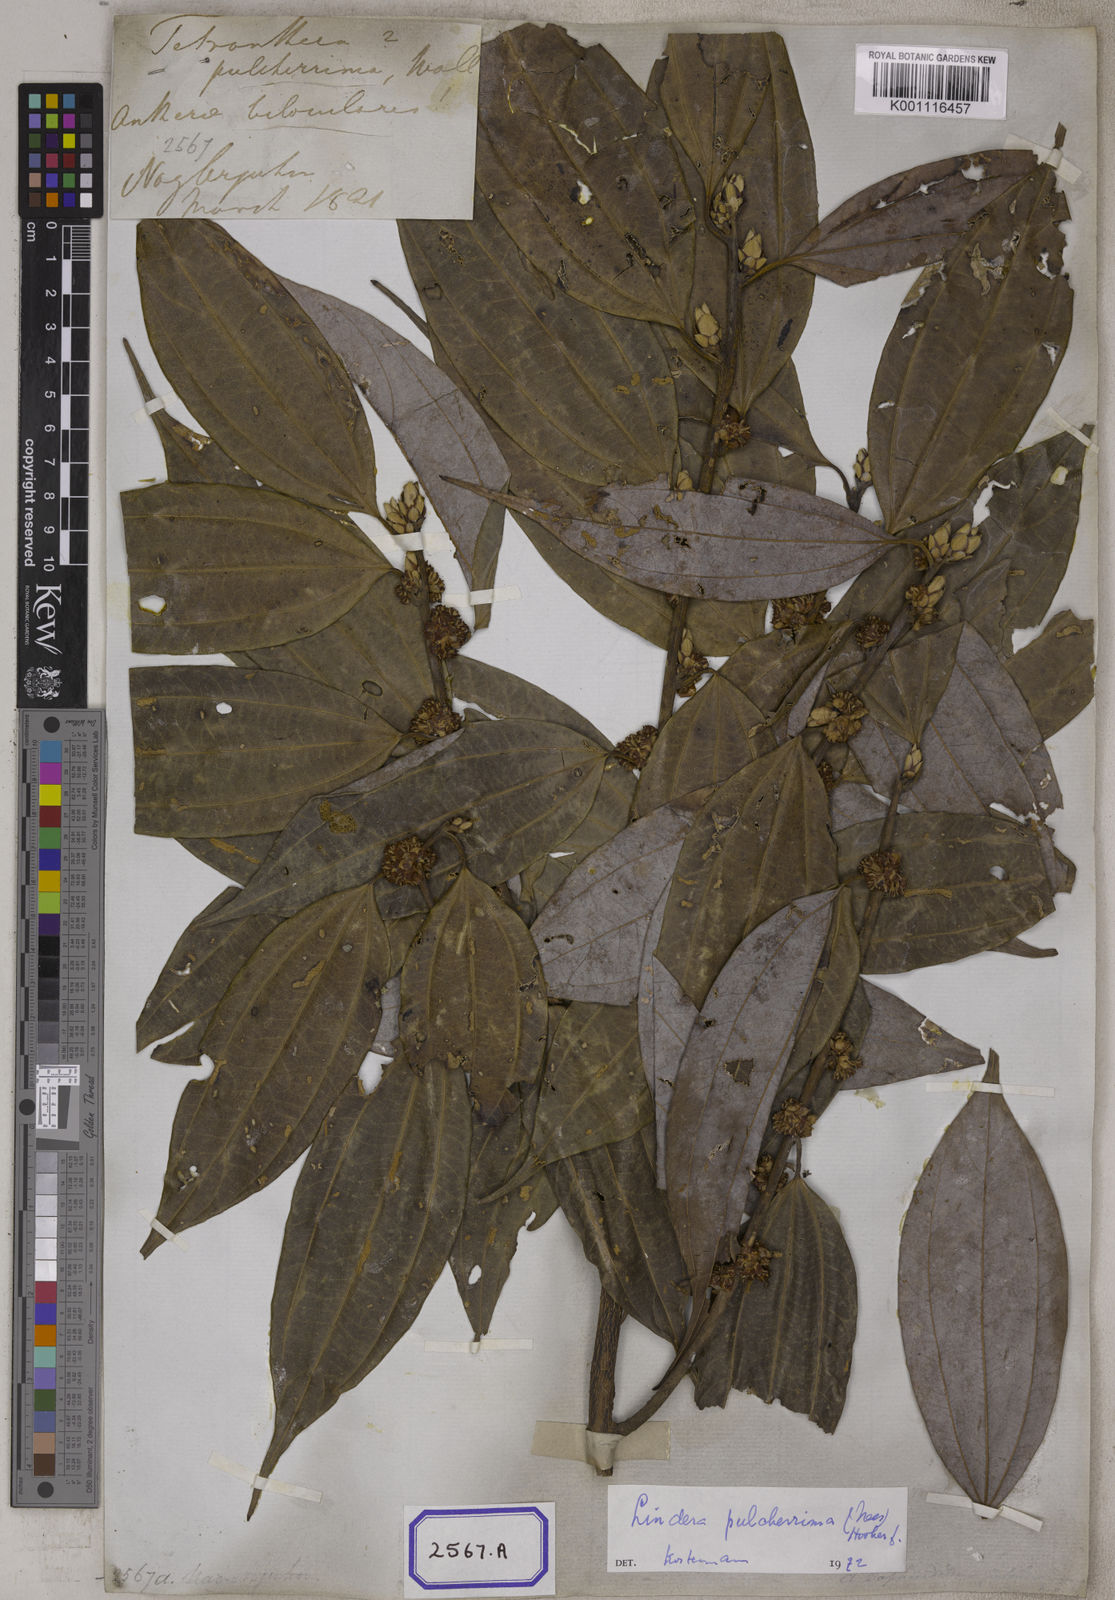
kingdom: Plantae
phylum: Tracheophyta
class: Magnoliopsida
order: Laurales
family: Lauraceae
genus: Lindera
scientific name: Lindera pulcherrima
